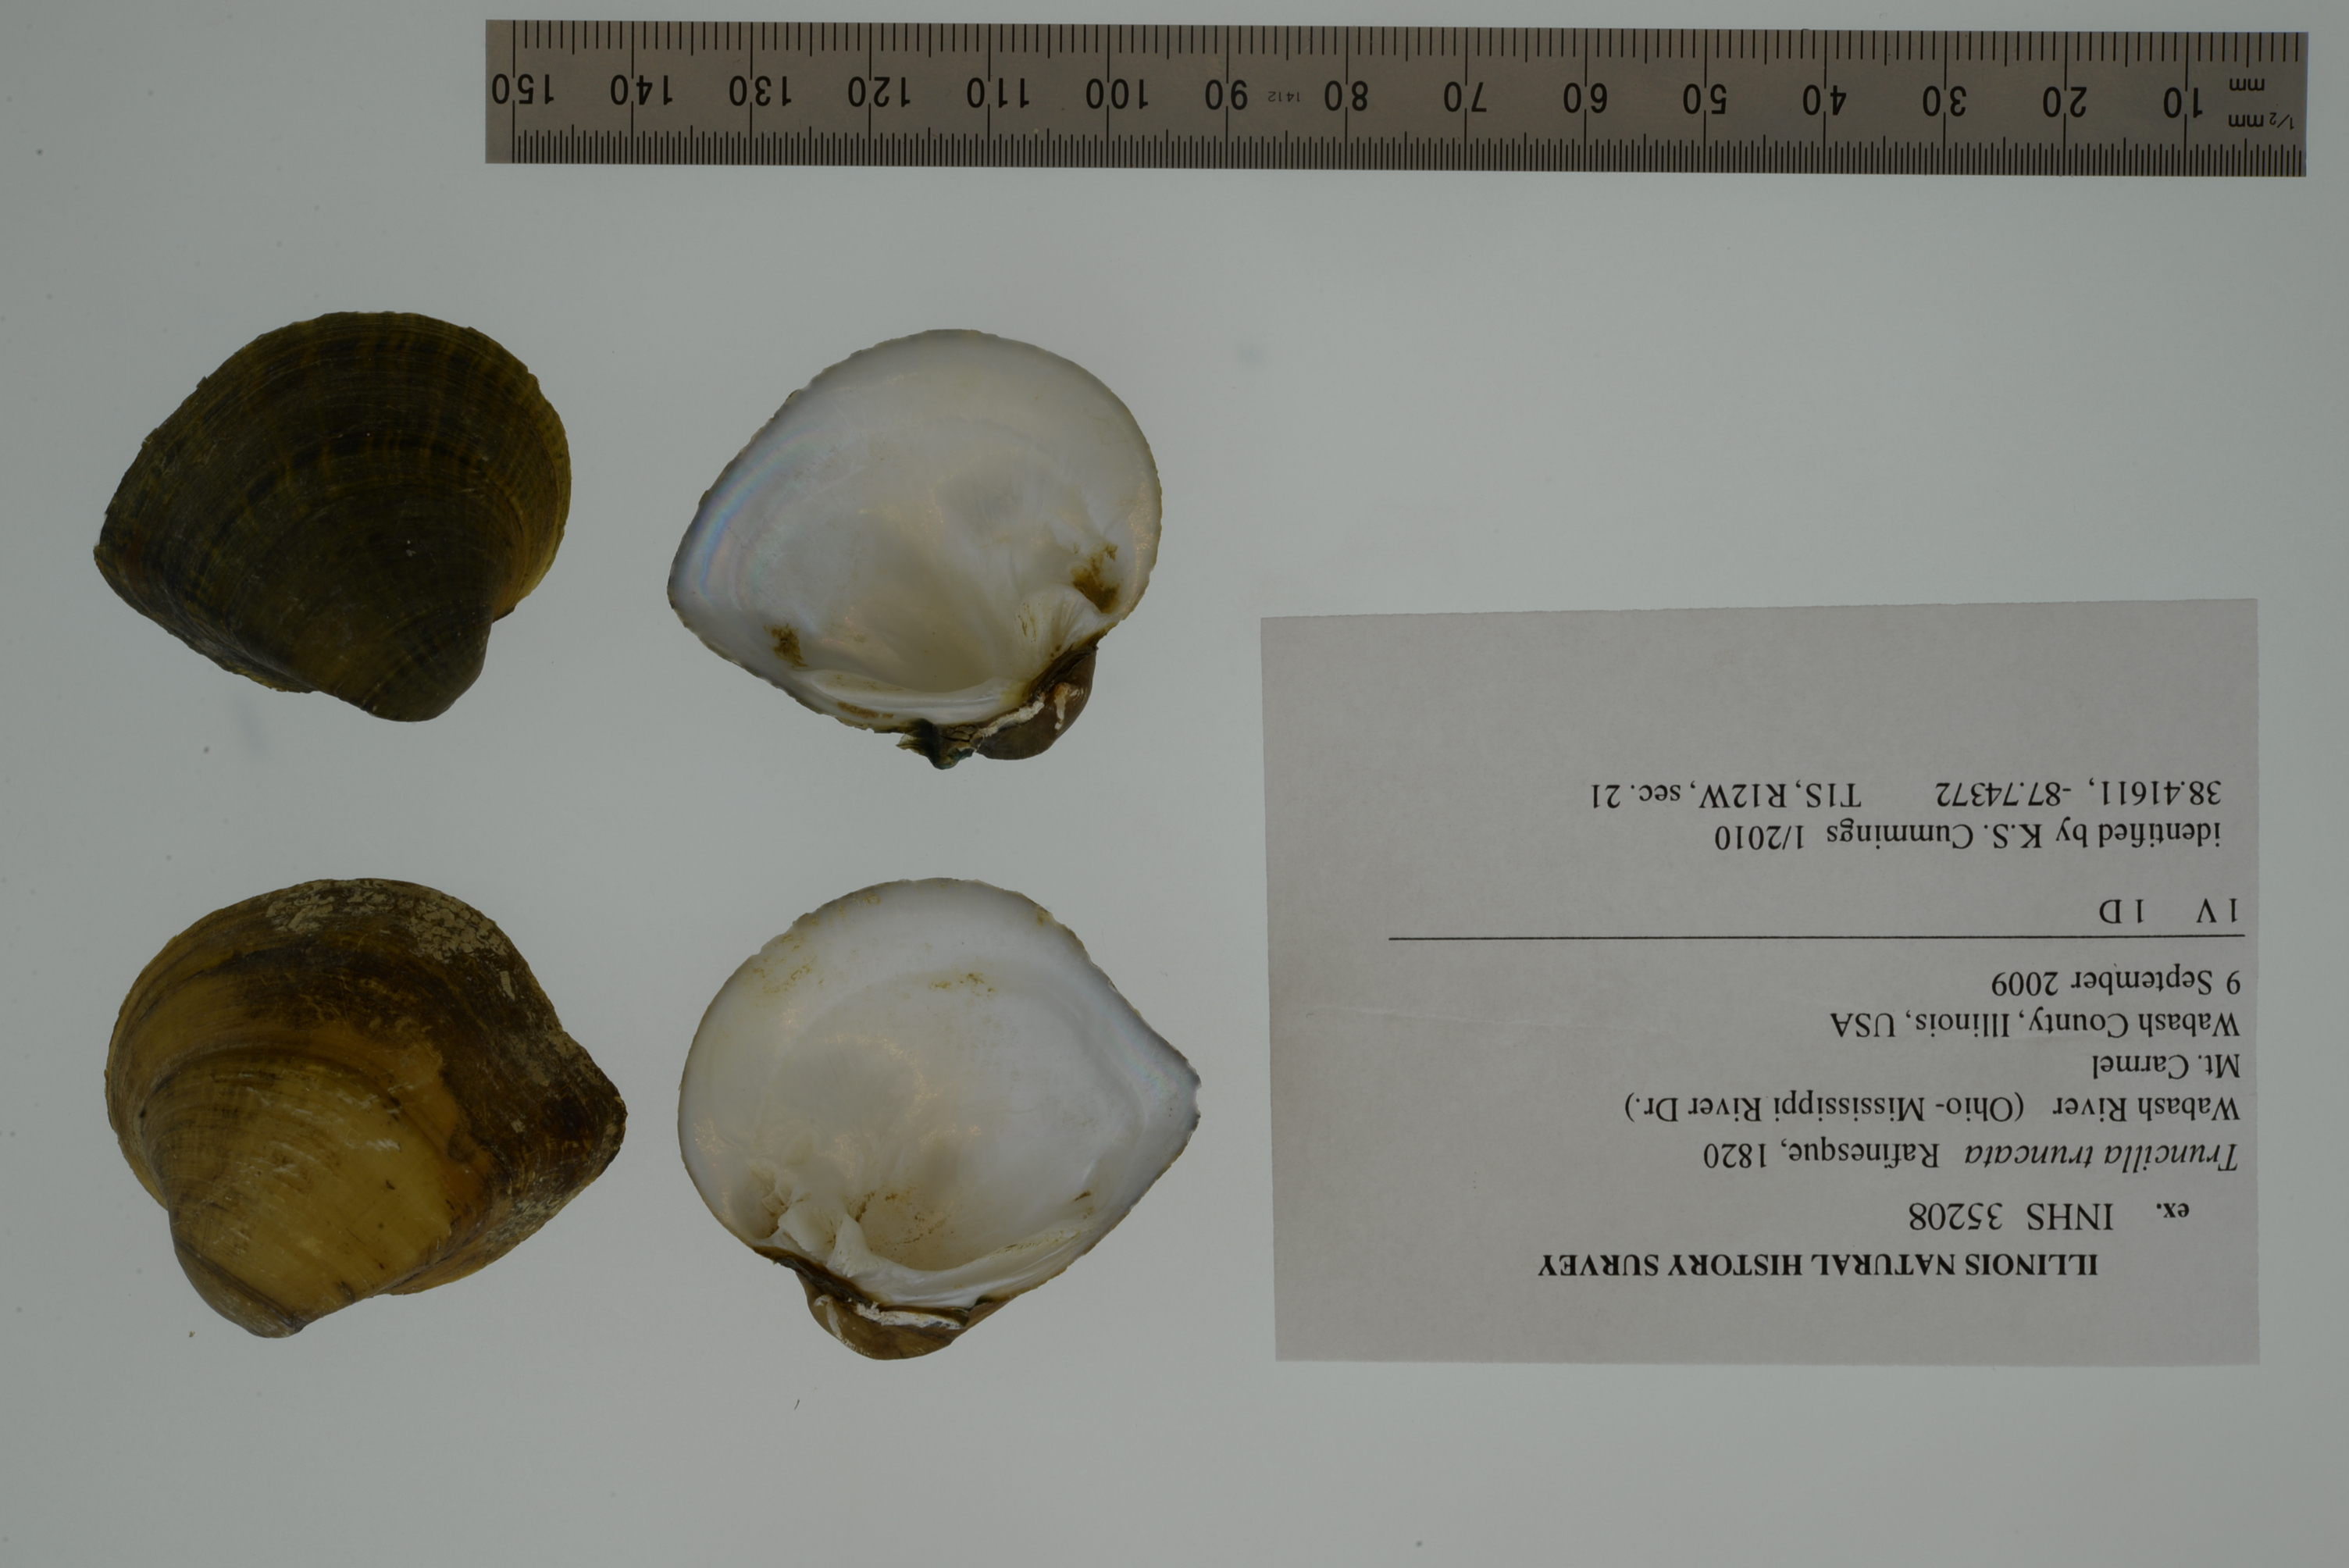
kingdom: Animalia
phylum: Mollusca
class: Bivalvia
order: Unionida
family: Unionidae
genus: Truncilla
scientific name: Truncilla truncata
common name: Deertoe
